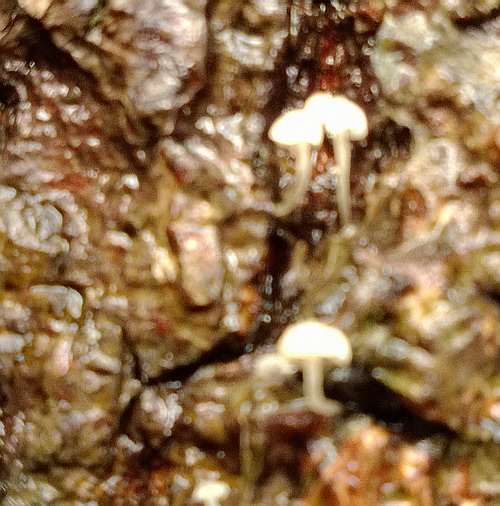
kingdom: Fungi
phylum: Basidiomycota
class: Agaricomycetes
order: Agaricales
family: Porotheleaceae
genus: Phloeomana
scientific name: Phloeomana speirea
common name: kvist-huesvamp
